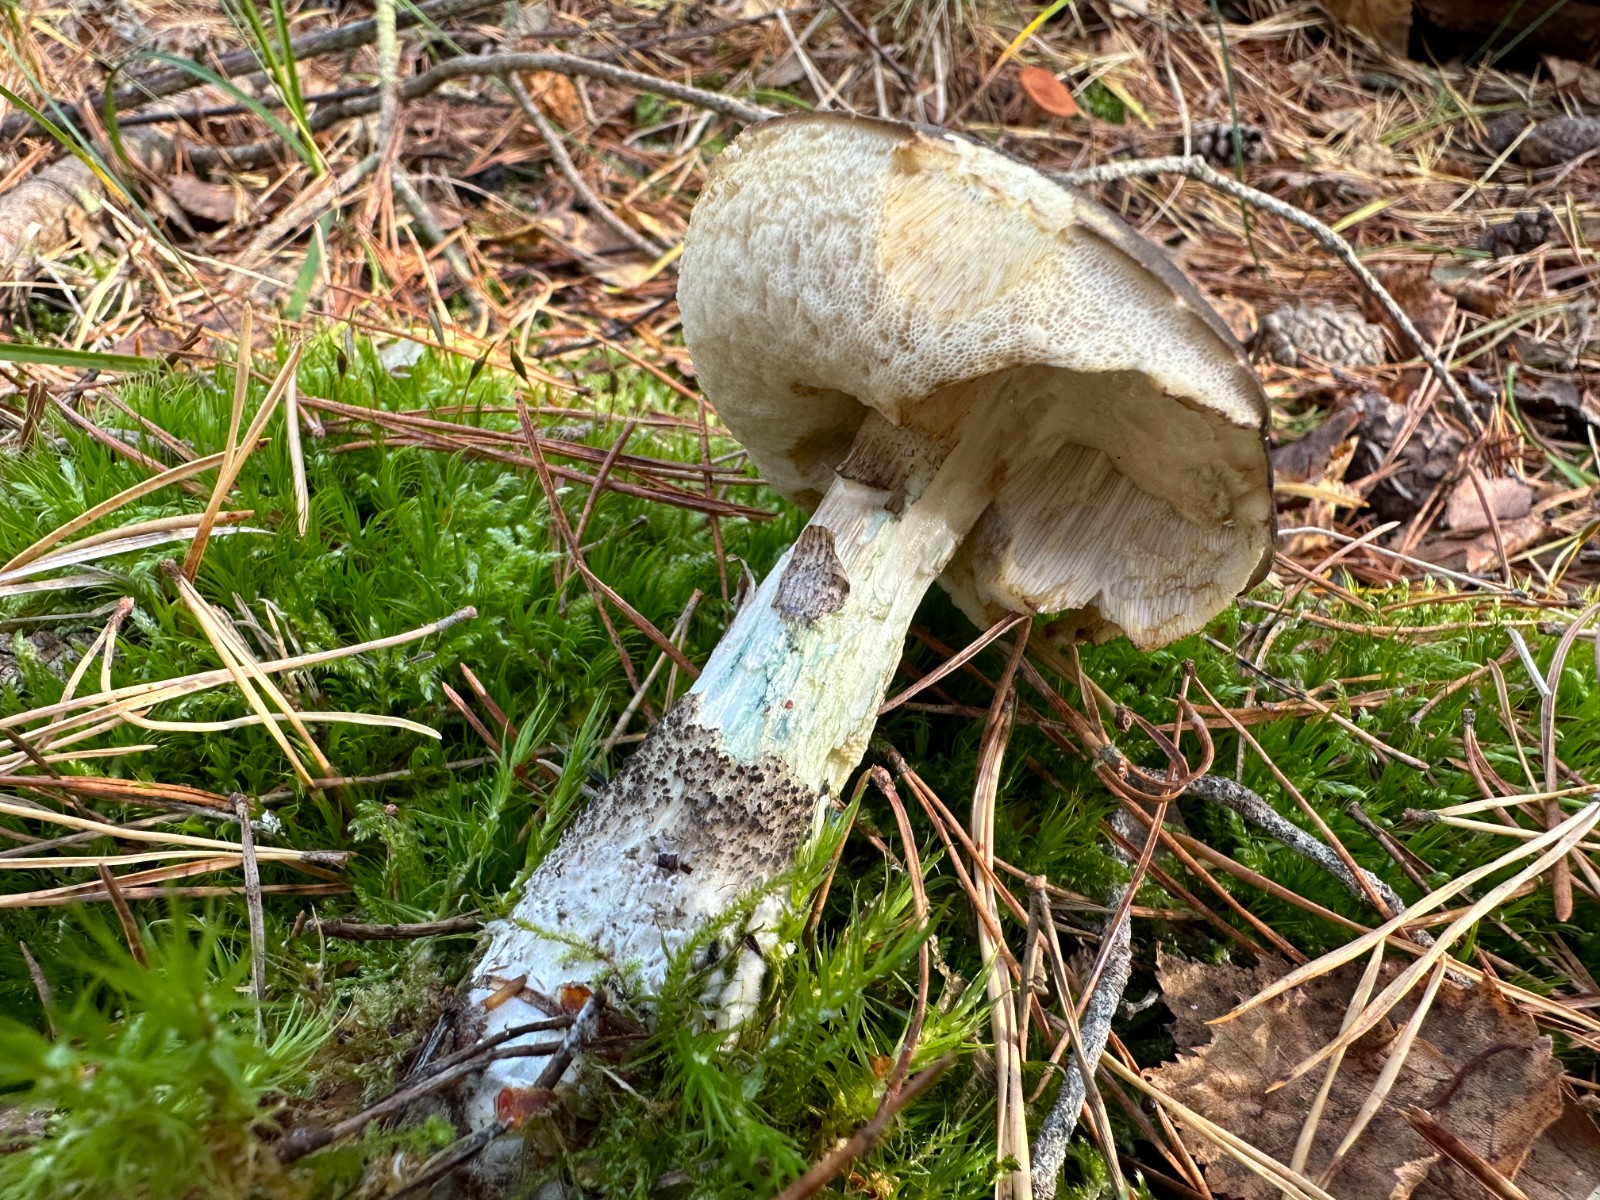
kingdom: Fungi
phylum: Basidiomycota
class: Agaricomycetes
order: Boletales
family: Boletaceae
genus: Leccinum
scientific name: Leccinum variicolor
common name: flammet skælrørhat
